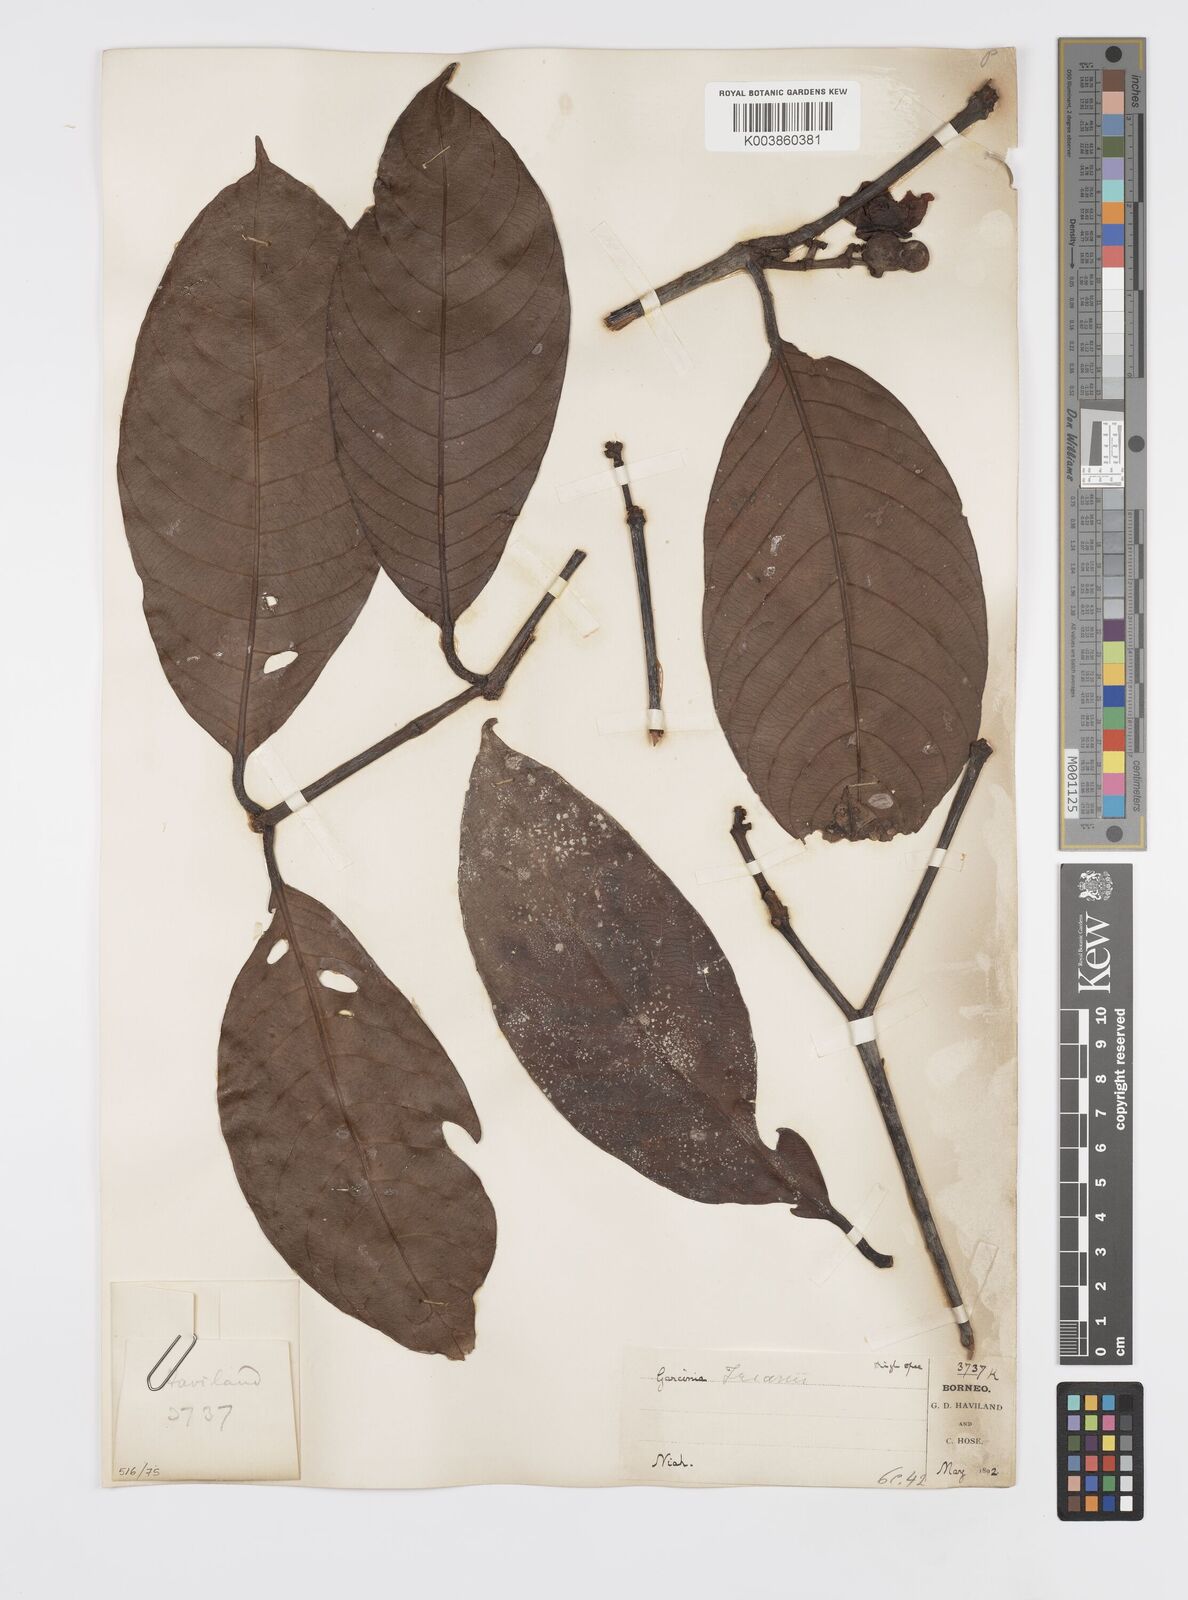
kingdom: Plantae
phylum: Tracheophyta
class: Magnoliopsida
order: Malpighiales
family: Clusiaceae
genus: Garcinia
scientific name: Garcinia trianii
